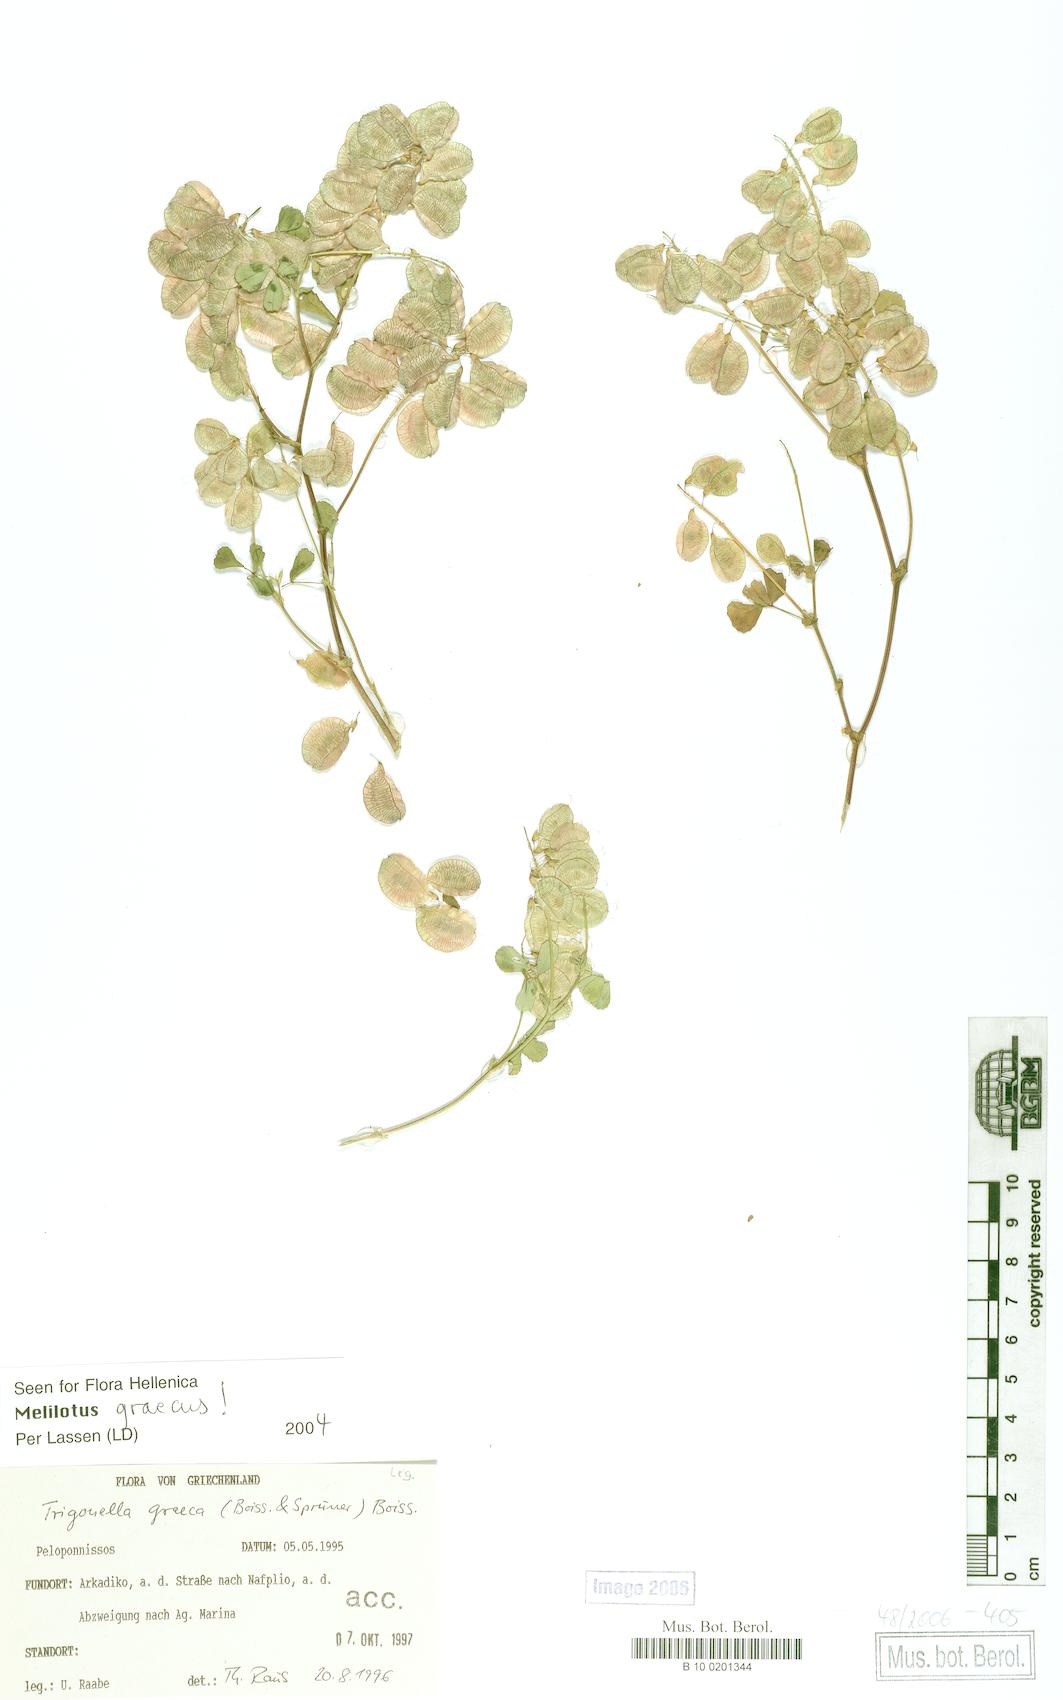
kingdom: Plantae
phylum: Tracheophyta
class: Magnoliopsida
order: Fabales
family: Fabaceae
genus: Trigonella
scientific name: Trigonella graeca
